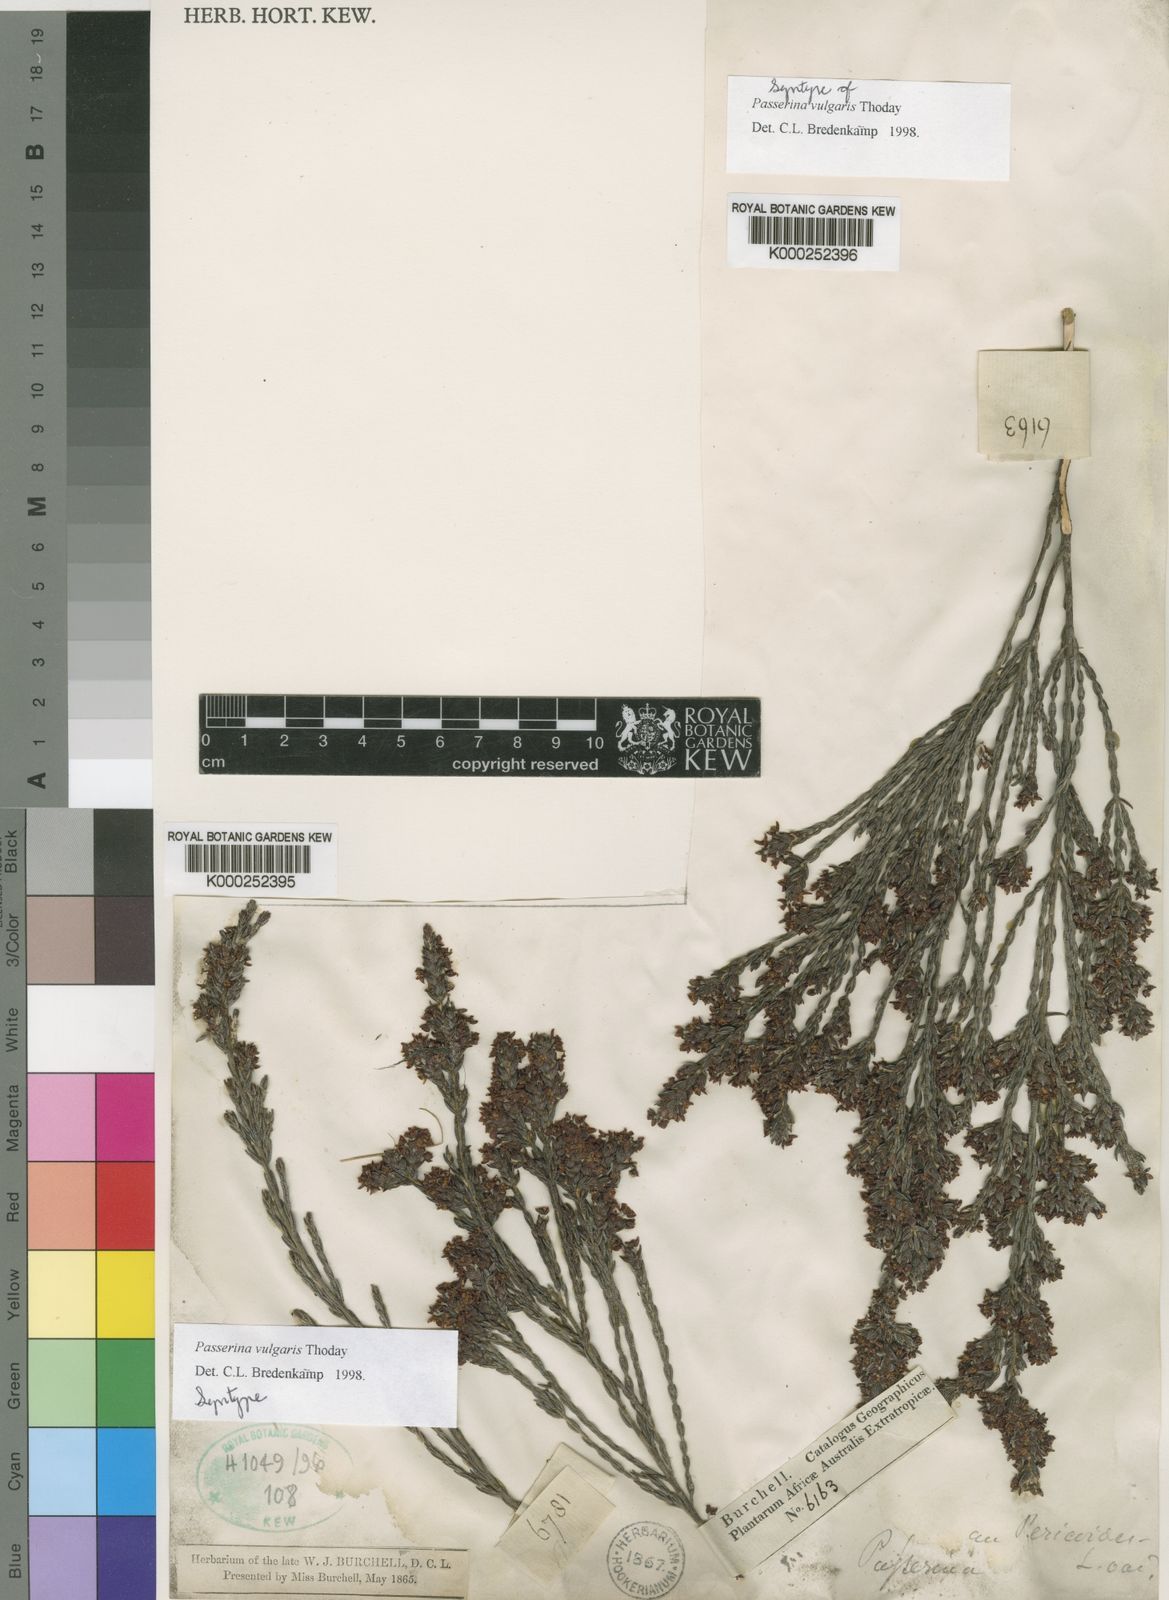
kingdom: Plantae
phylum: Tracheophyta
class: Magnoliopsida
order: Malvales
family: Thymelaeaceae
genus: Passerina
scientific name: Passerina corymbosa
